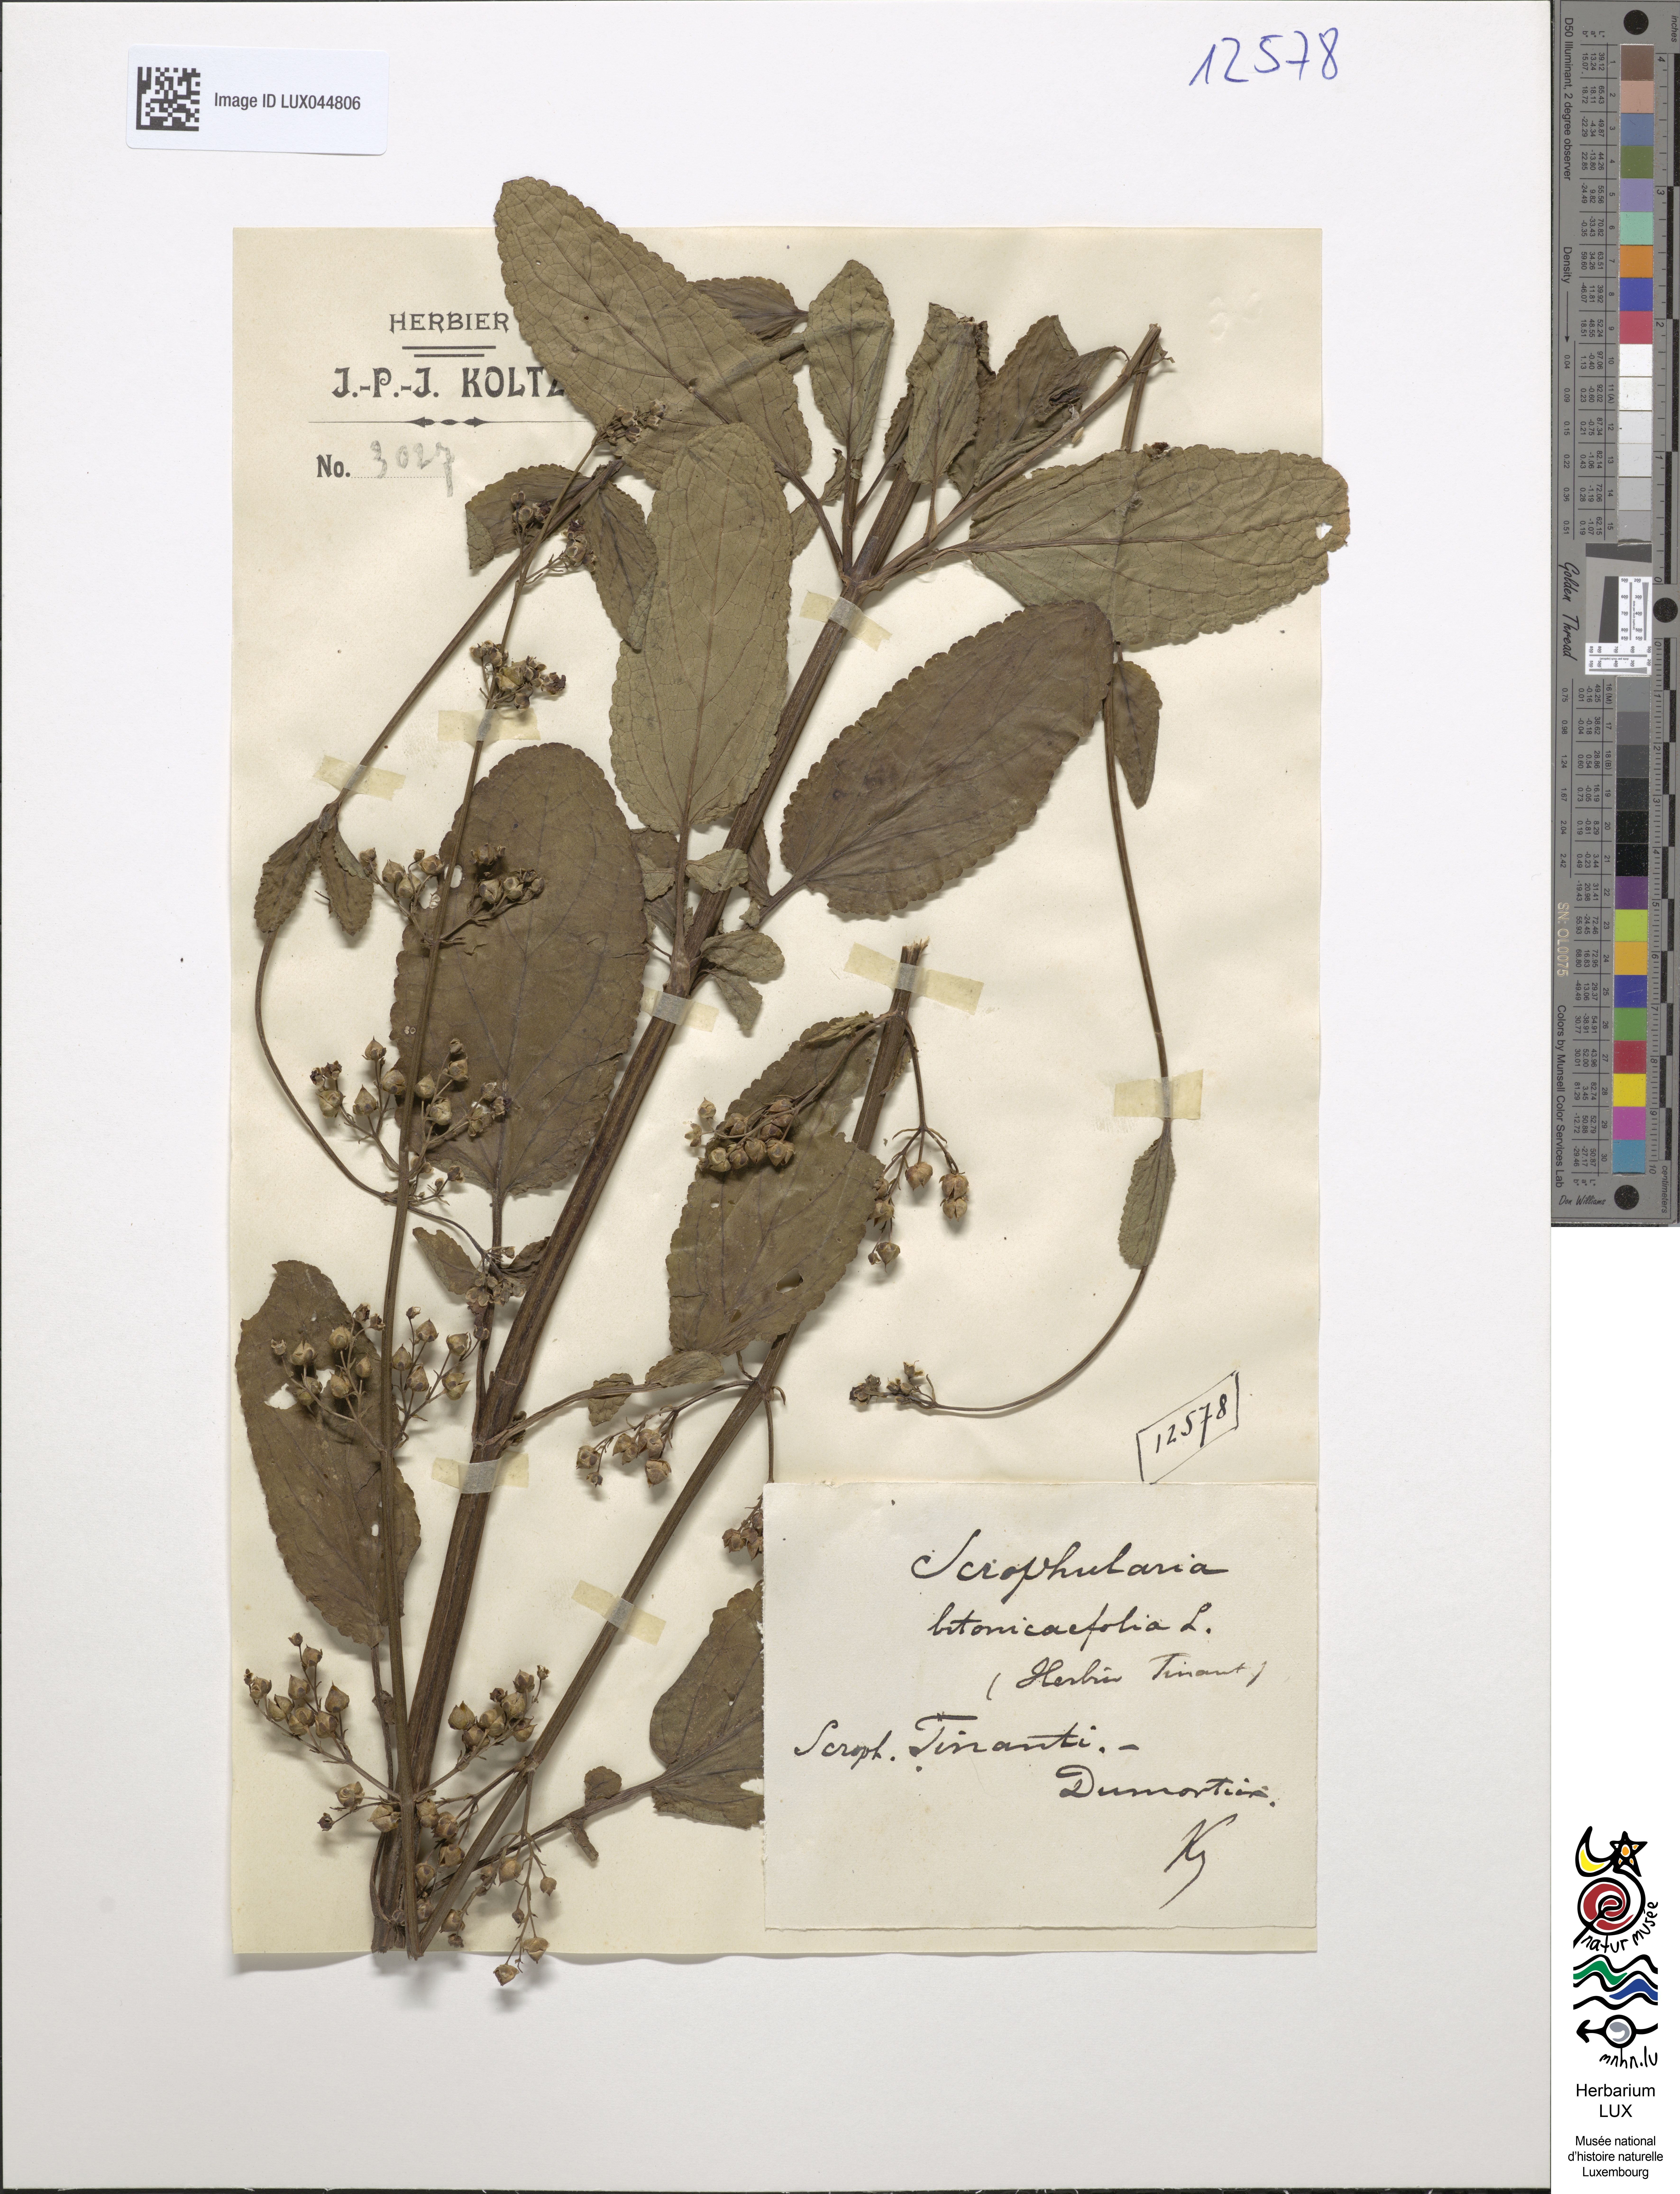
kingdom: Plantae
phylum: Tracheophyta
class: Magnoliopsida
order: Lamiales
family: Scrophulariaceae
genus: Scrophularia
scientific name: Scrophularia auriculata
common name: Water betony
